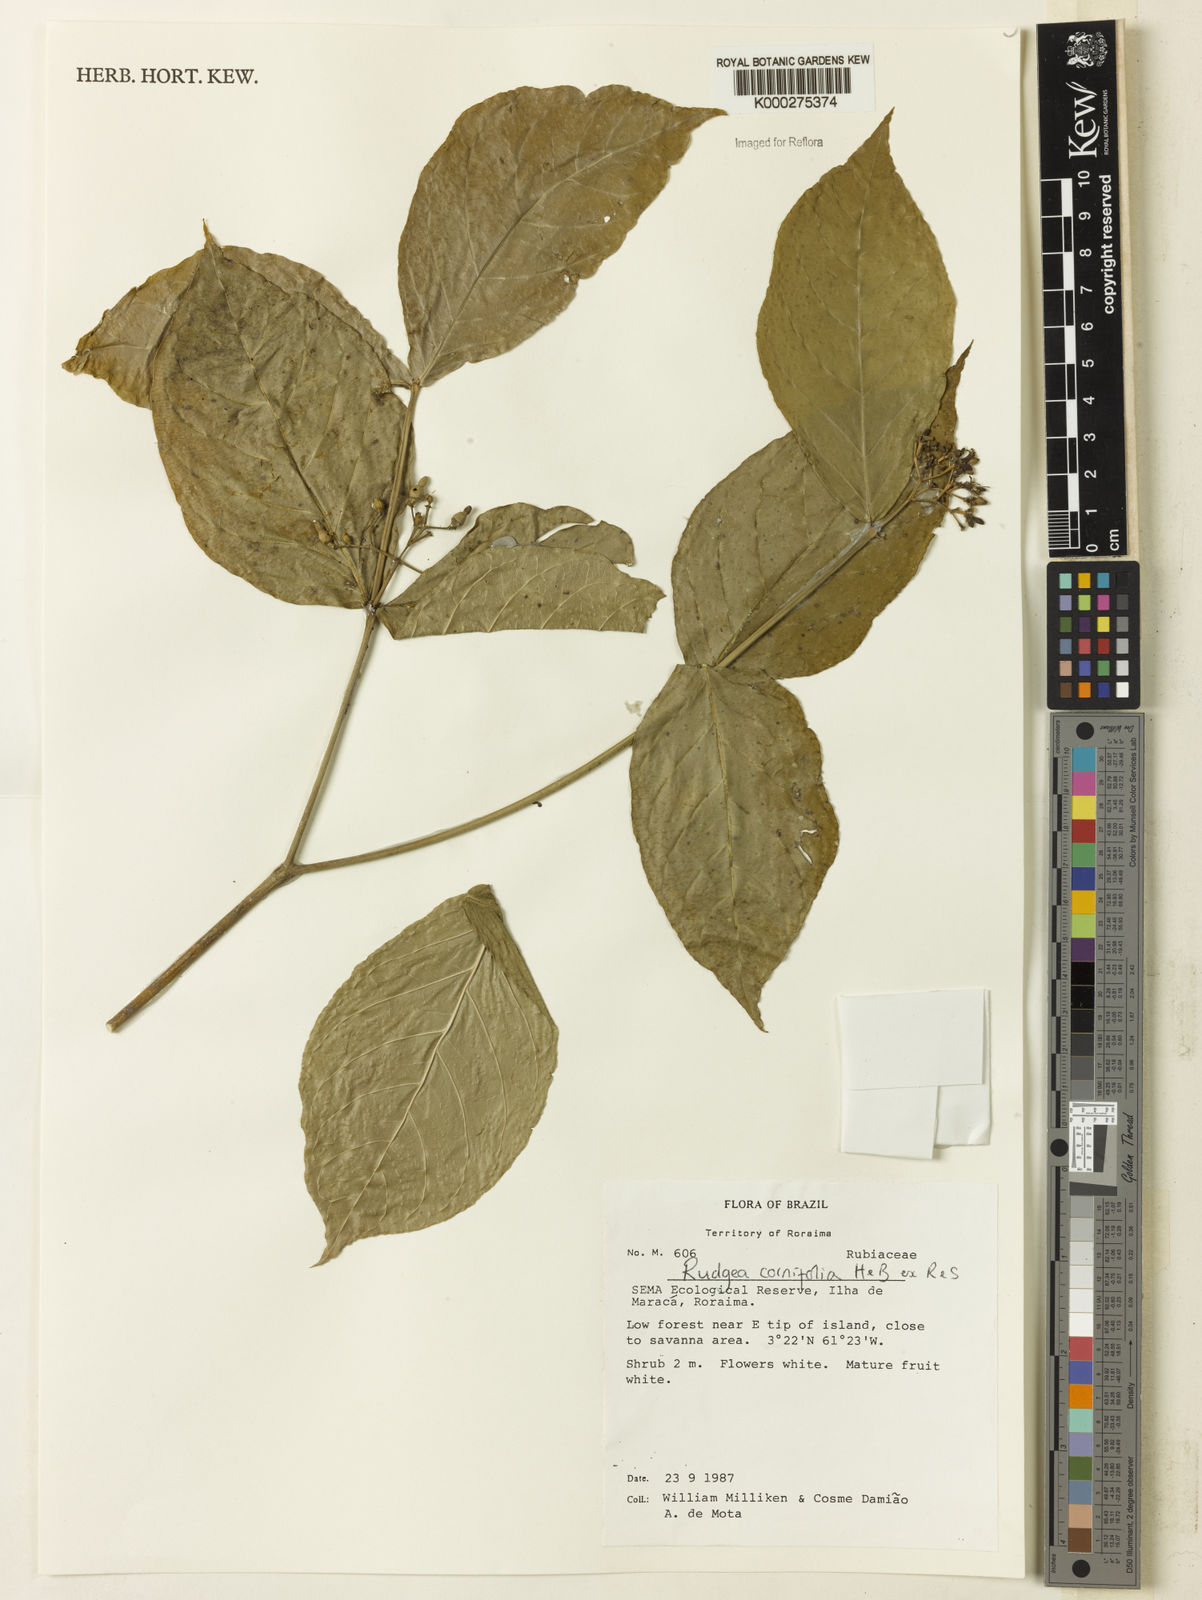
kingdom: Plantae
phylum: Tracheophyta
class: Magnoliopsida
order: Gentianales
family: Rubiaceae
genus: Rudgea
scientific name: Rudgea cornifolia
